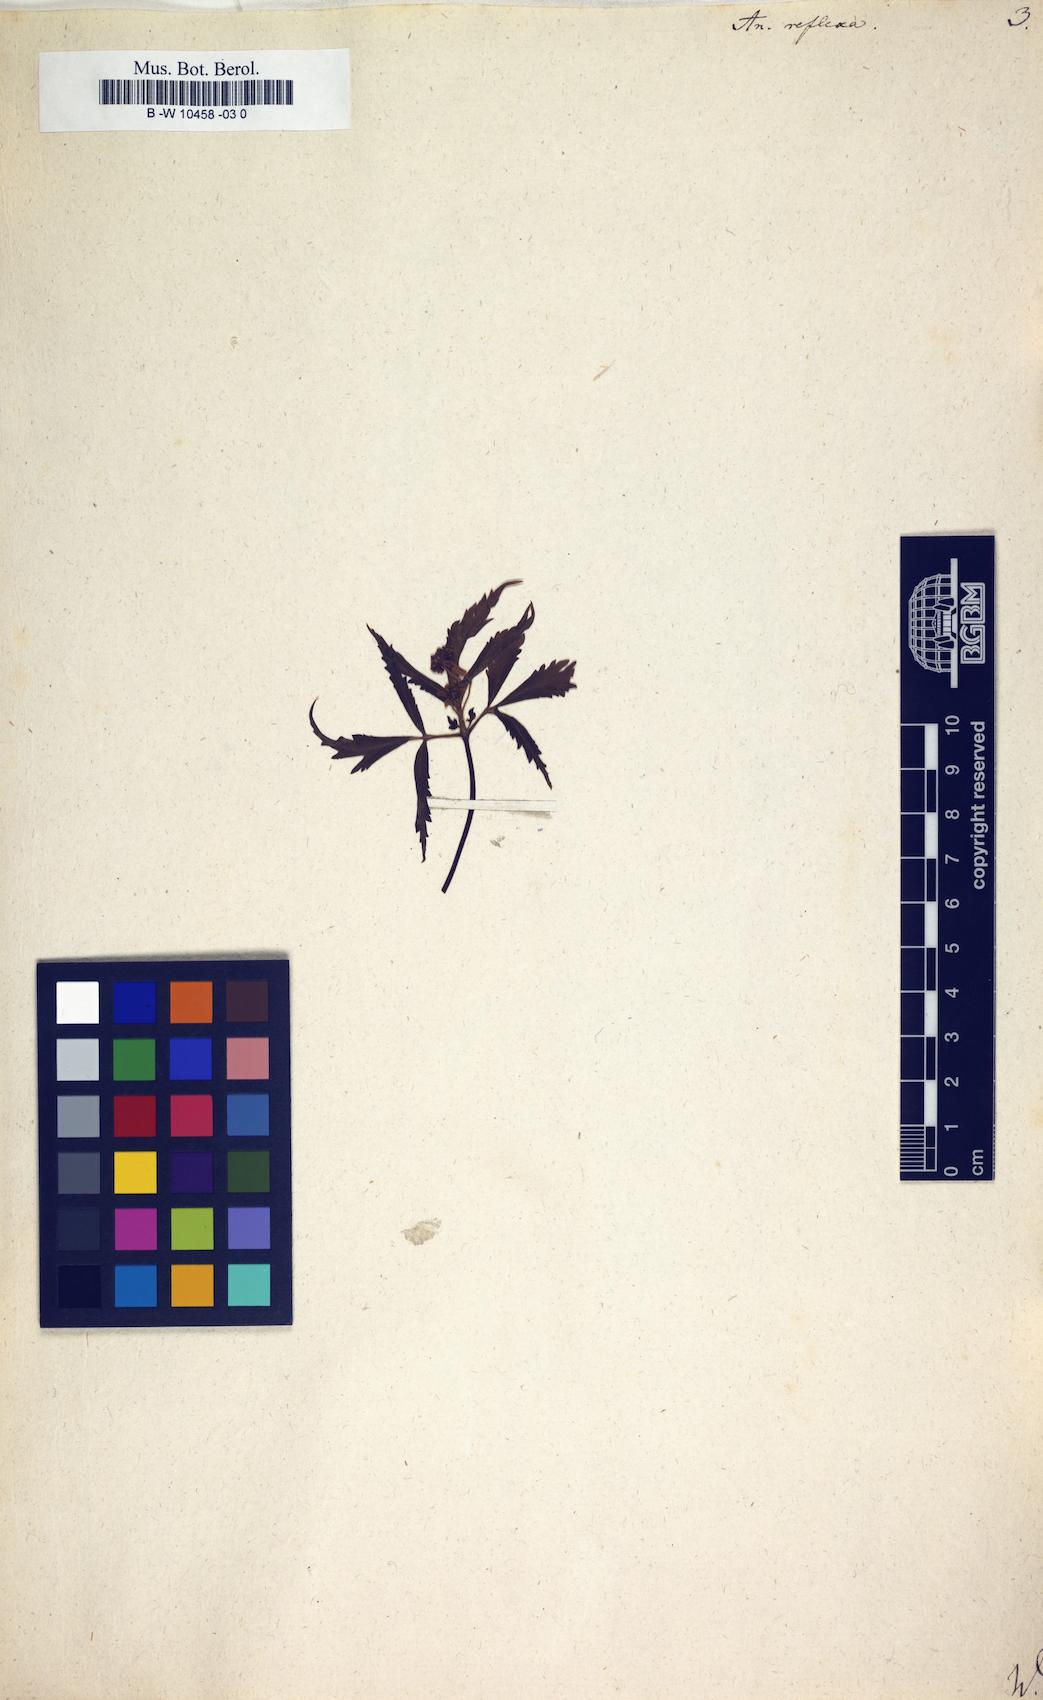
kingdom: Plantae
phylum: Tracheophyta
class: Magnoliopsida
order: Ranunculales
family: Ranunculaceae
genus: Anemone
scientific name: Anemone reflexa
